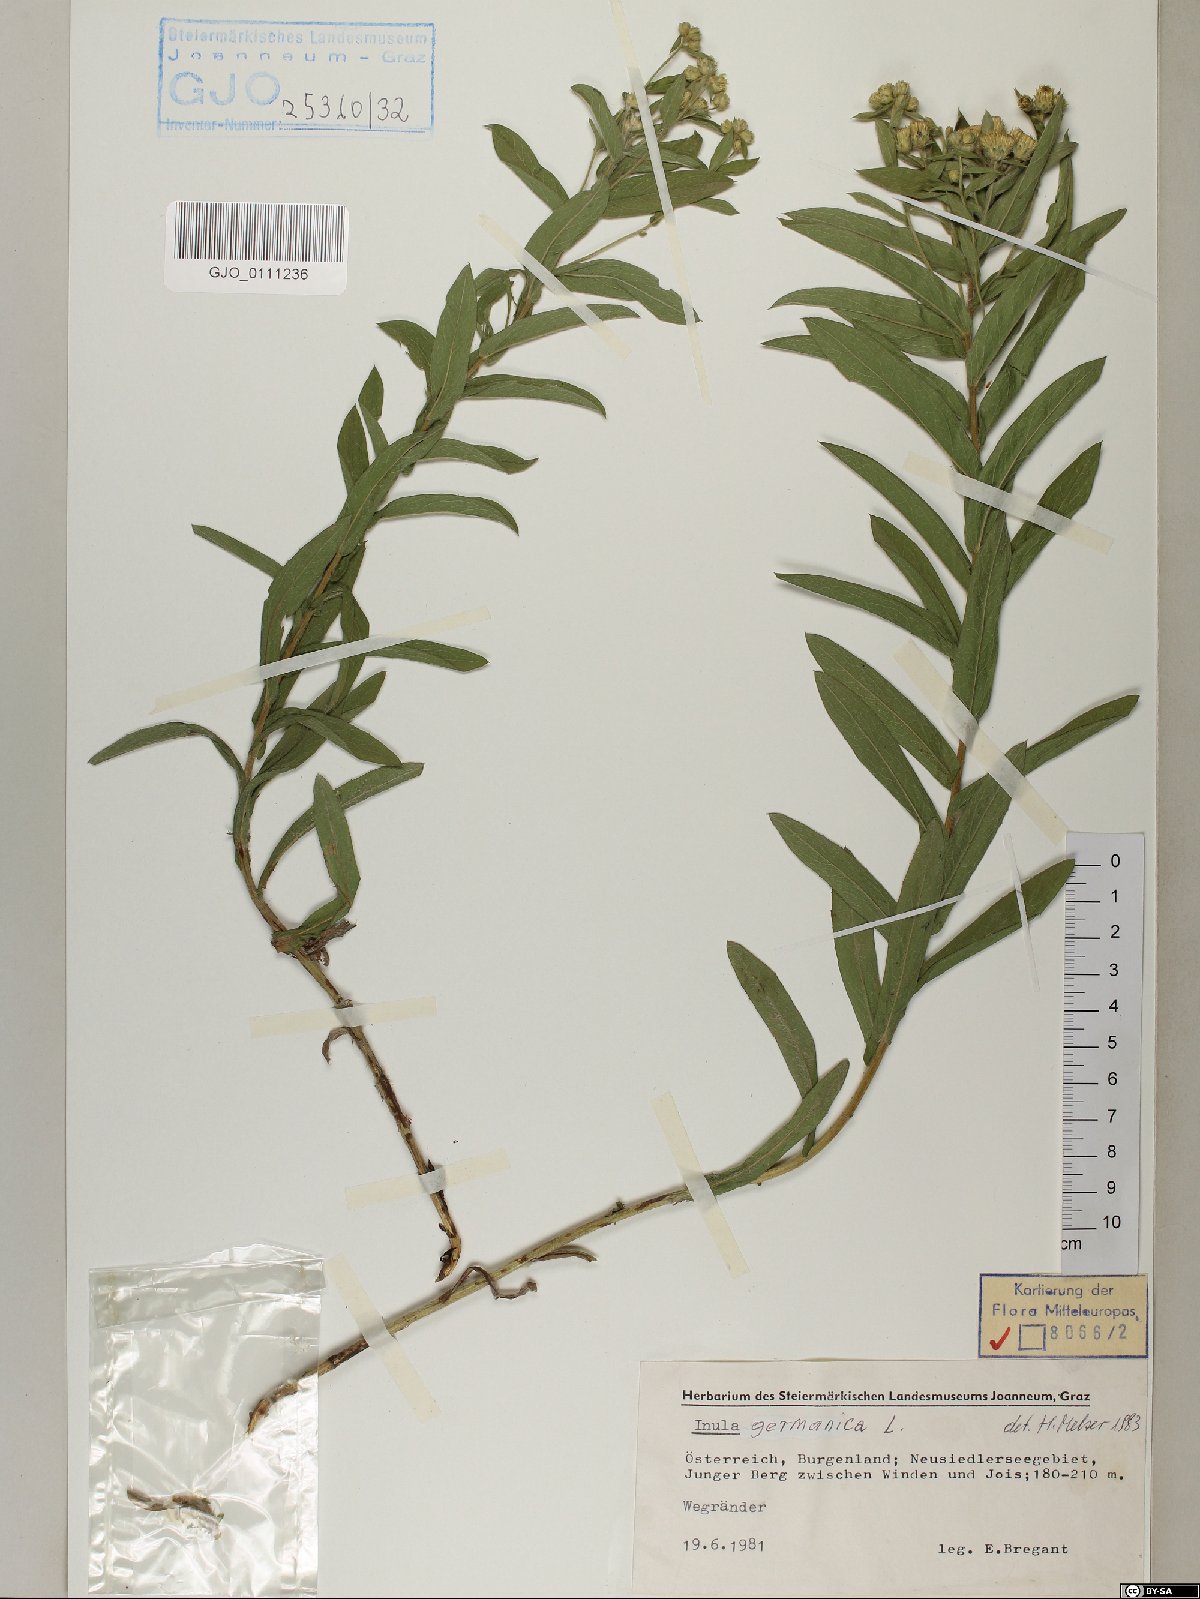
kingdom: Plantae
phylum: Tracheophyta
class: Magnoliopsida
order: Asterales
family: Asteraceae
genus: Pentanema
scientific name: Pentanema germanicum
